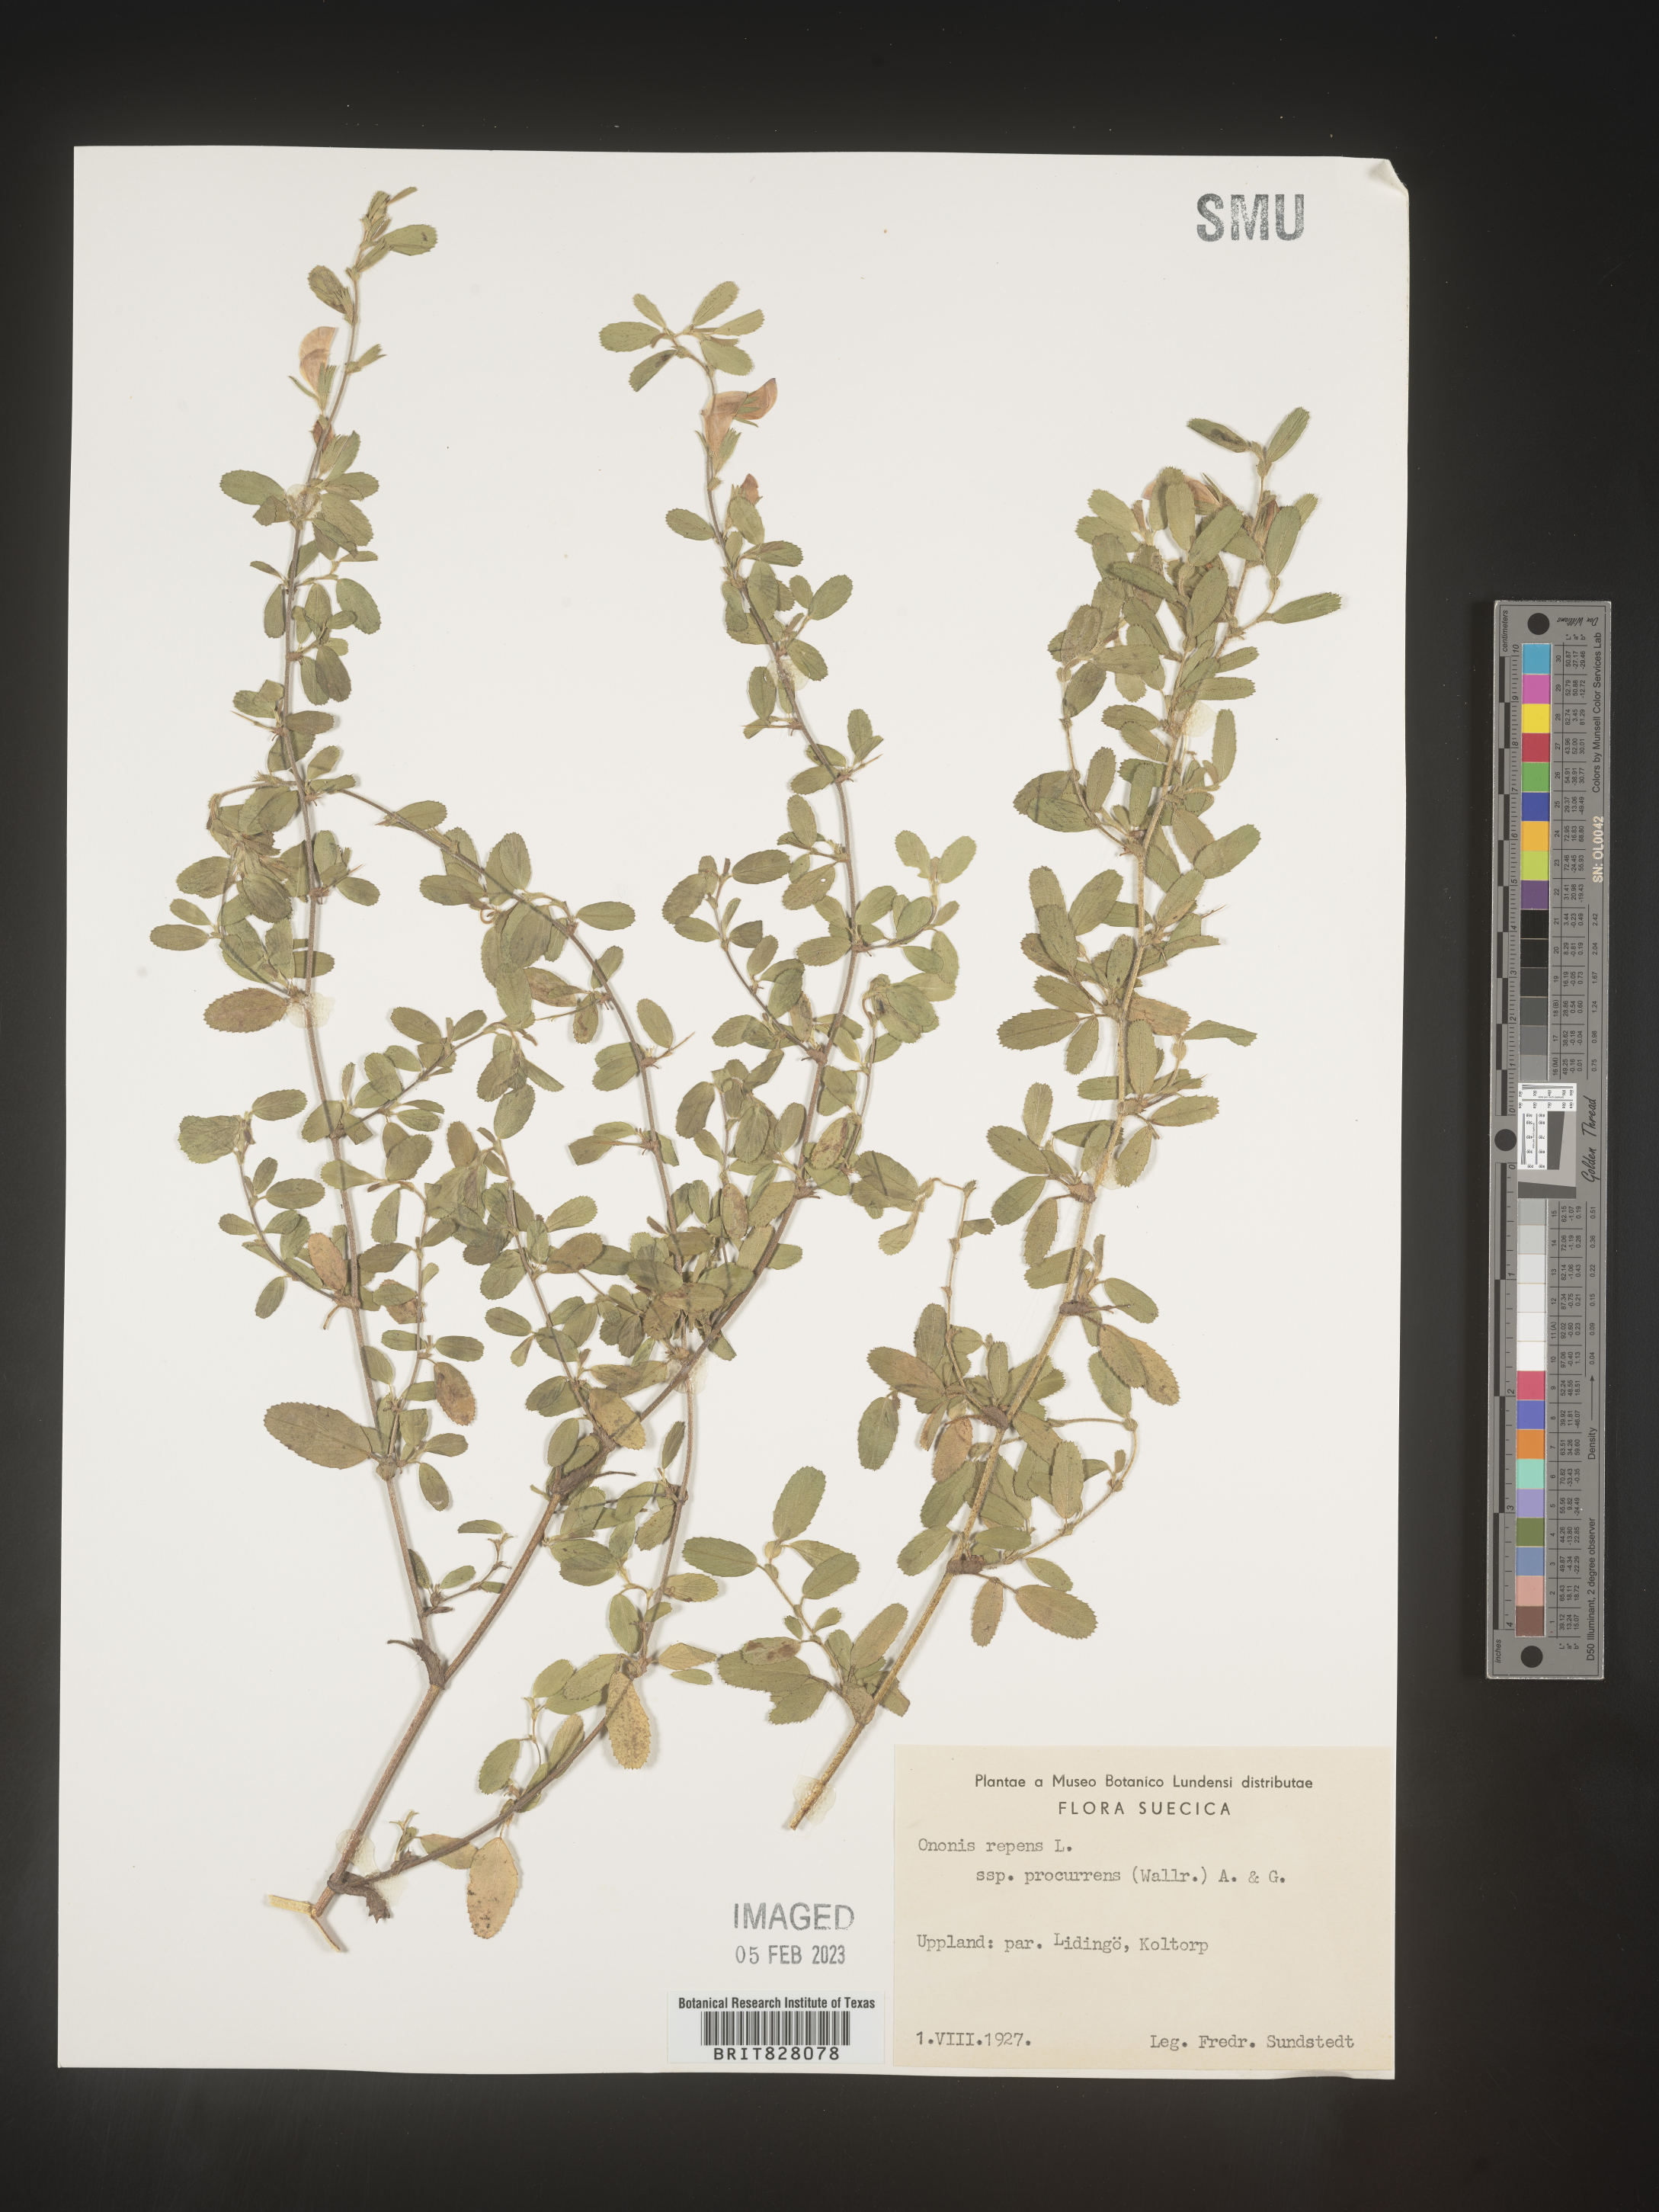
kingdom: Plantae
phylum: Tracheophyta
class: Magnoliopsida
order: Fabales
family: Fabaceae
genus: Ononis
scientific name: Ononis
